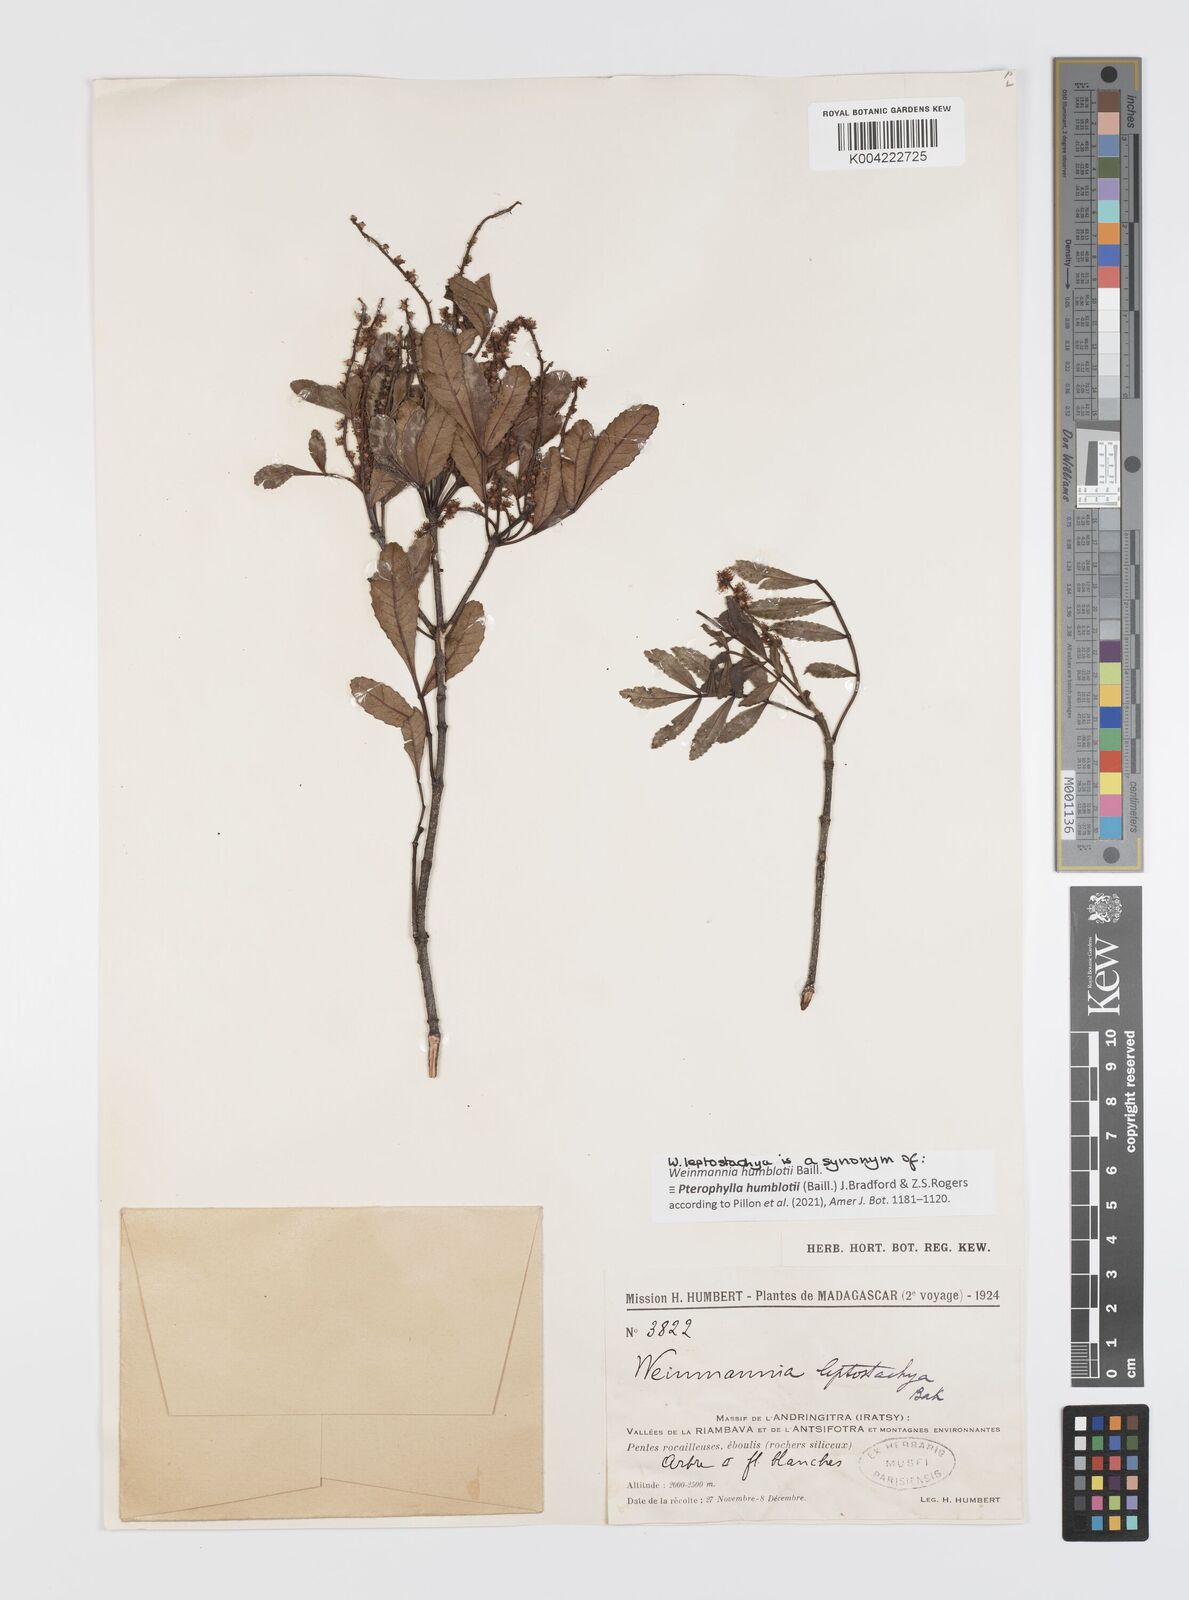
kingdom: Plantae
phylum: Tracheophyta
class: Magnoliopsida
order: Oxalidales
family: Cunoniaceae
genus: Pterophylla
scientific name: Pterophylla
